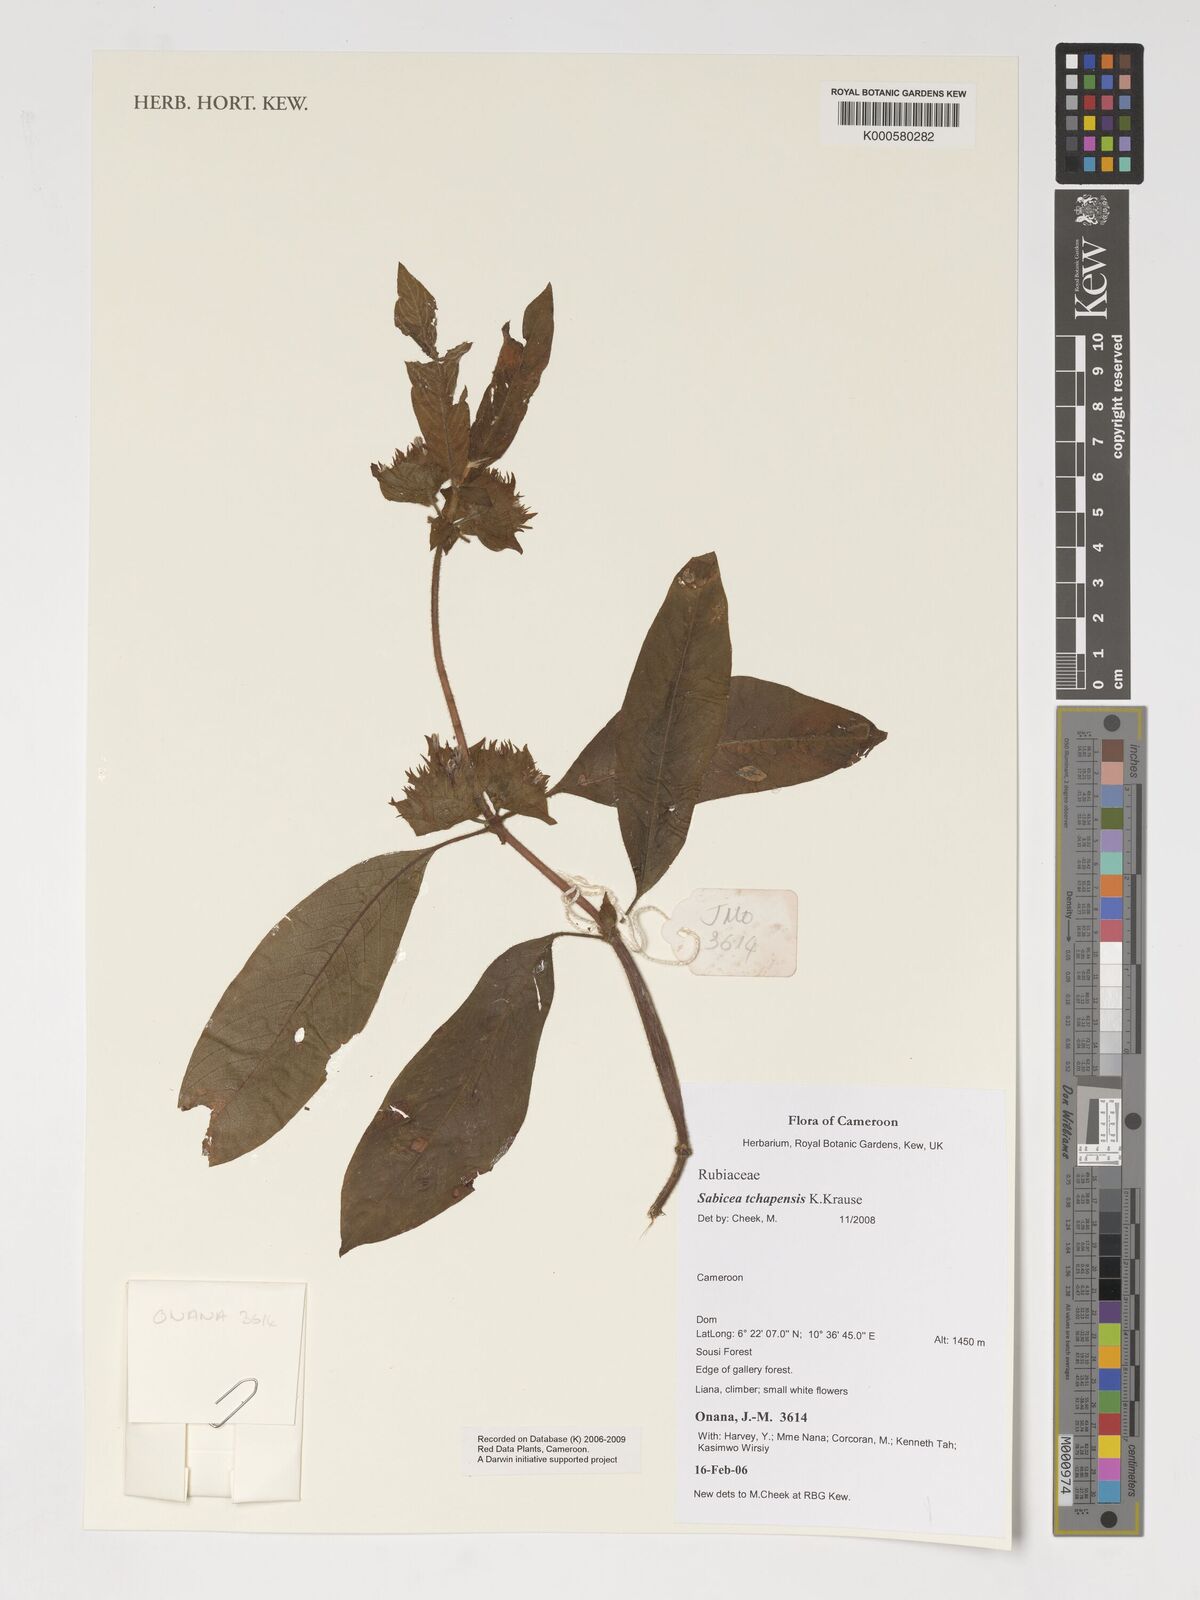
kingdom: Plantae
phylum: Tracheophyta
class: Magnoliopsida
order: Gentianales
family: Rubiaceae
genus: Sabicea
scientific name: Sabicea tchapensis
